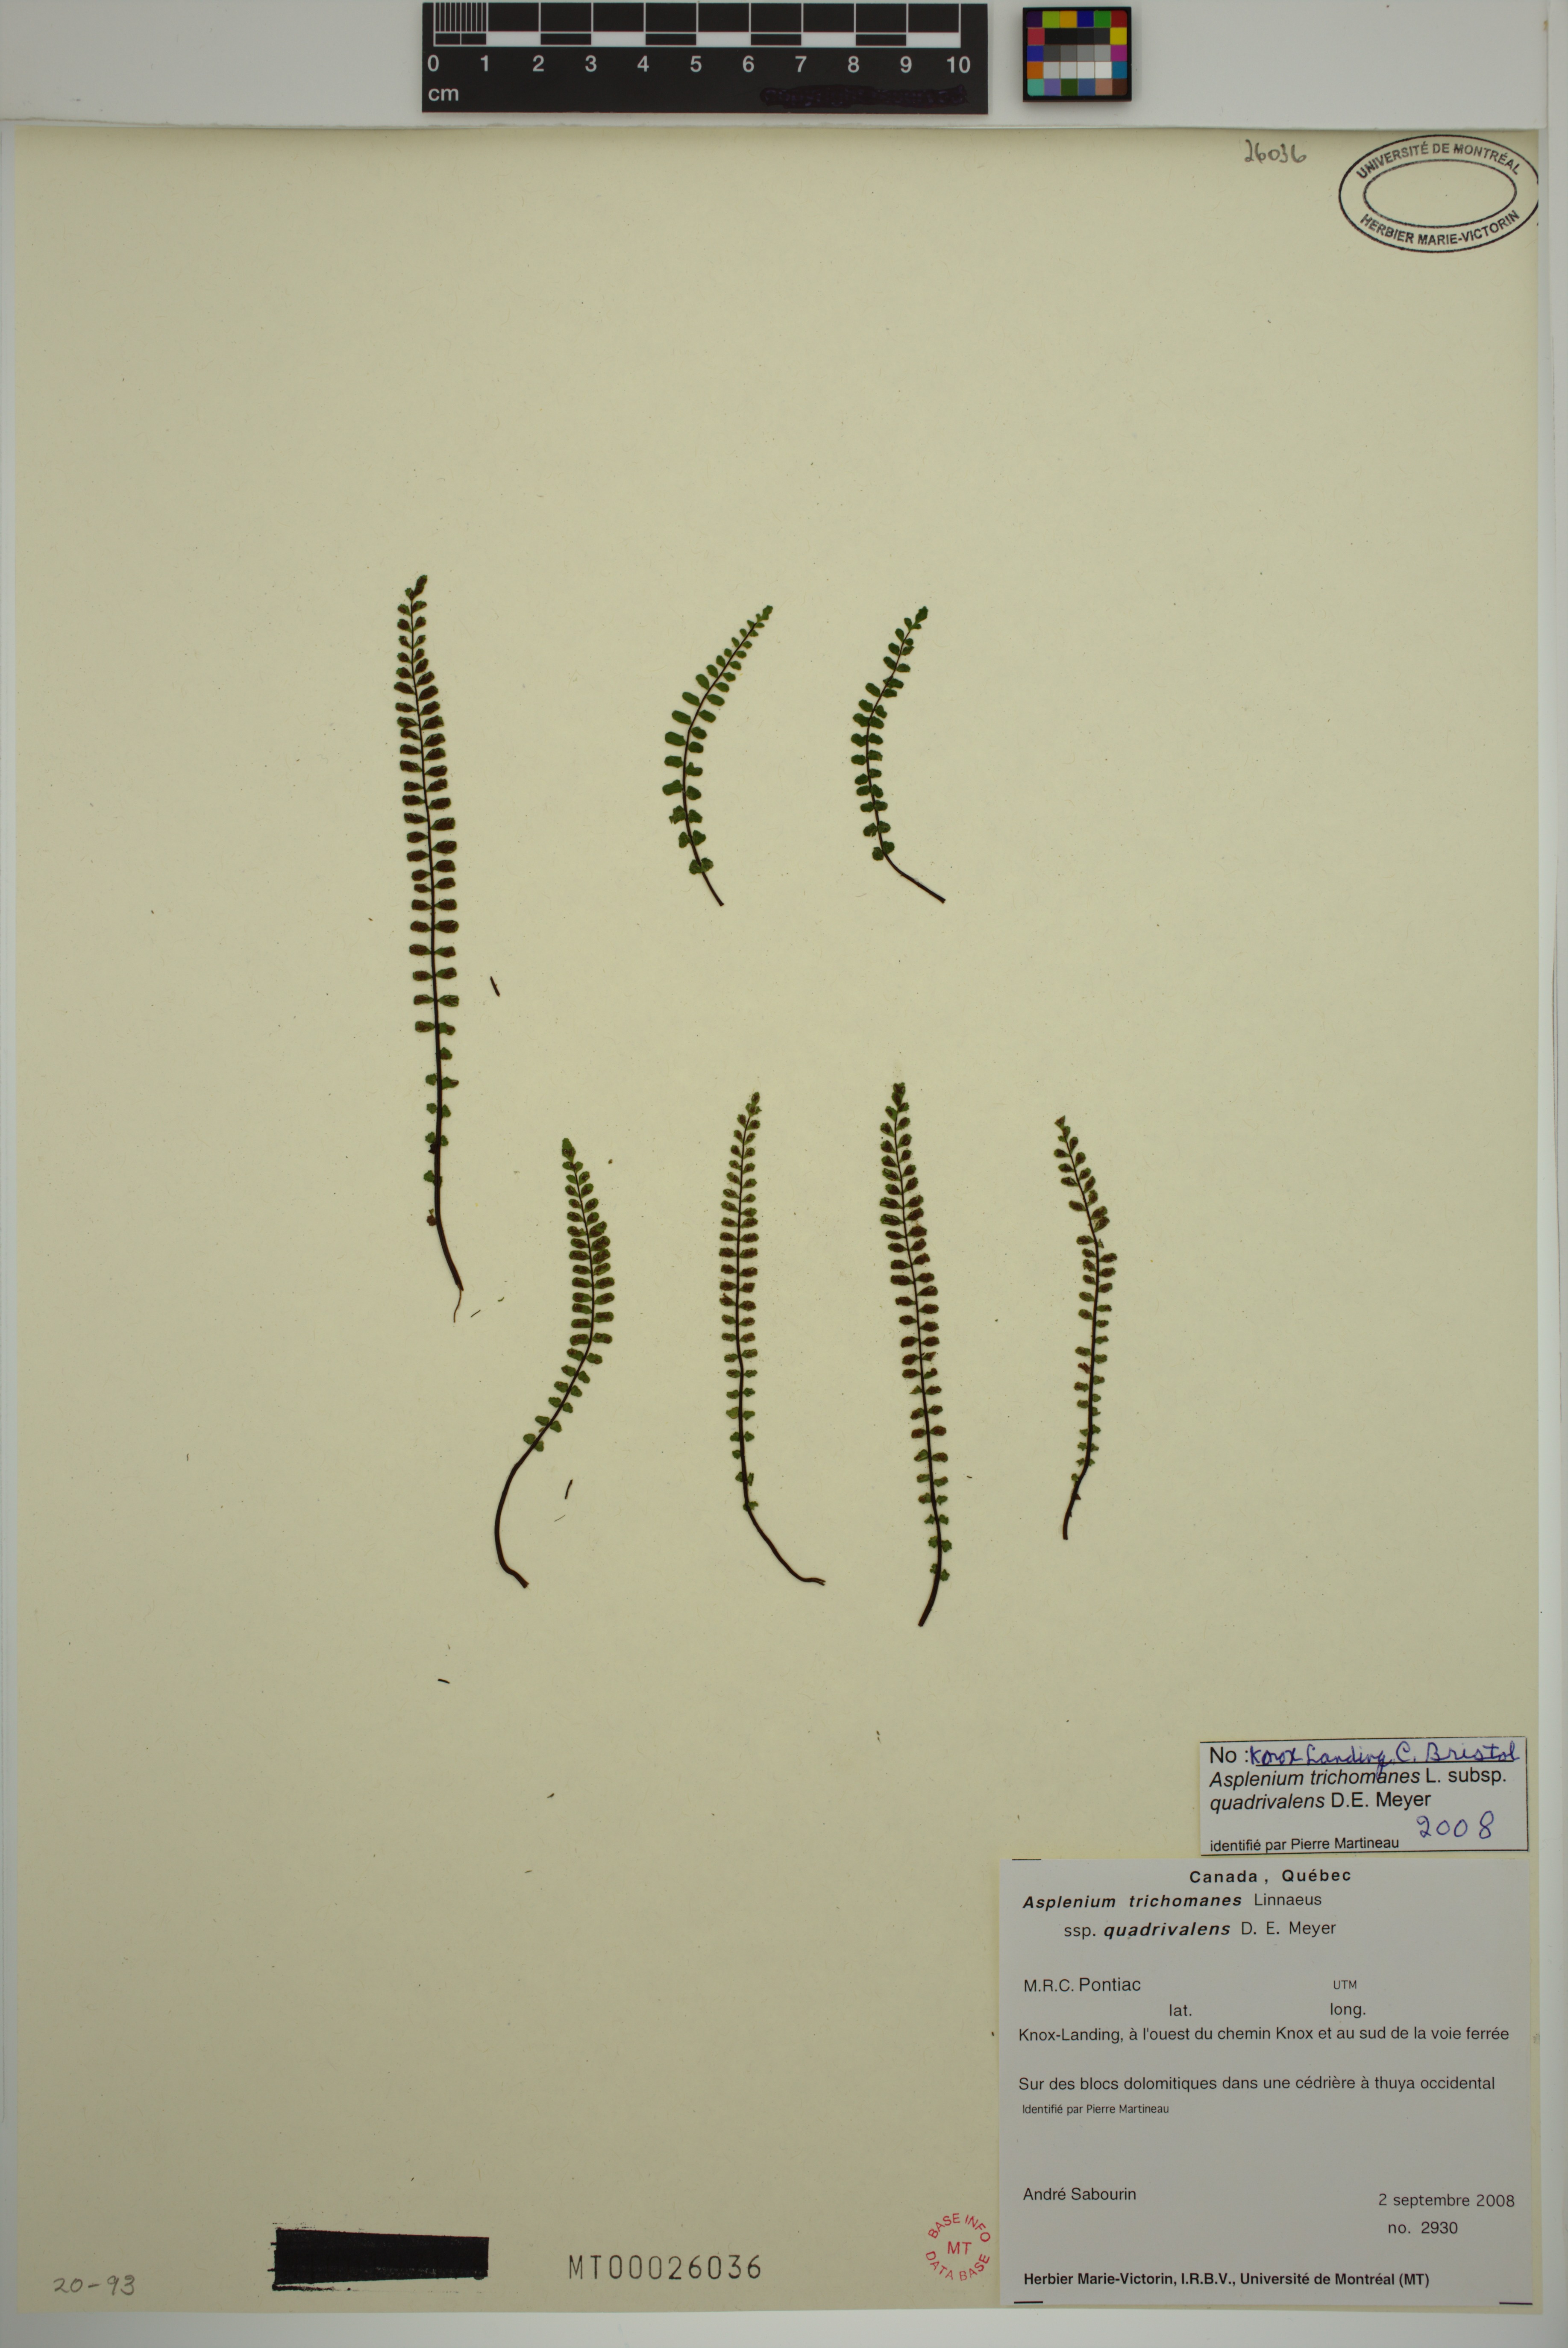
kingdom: Plantae
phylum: Tracheophyta
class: Polypodiopsida
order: Polypodiales
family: Aspleniaceae
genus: Asplenium
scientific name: Asplenium quadrivalens
